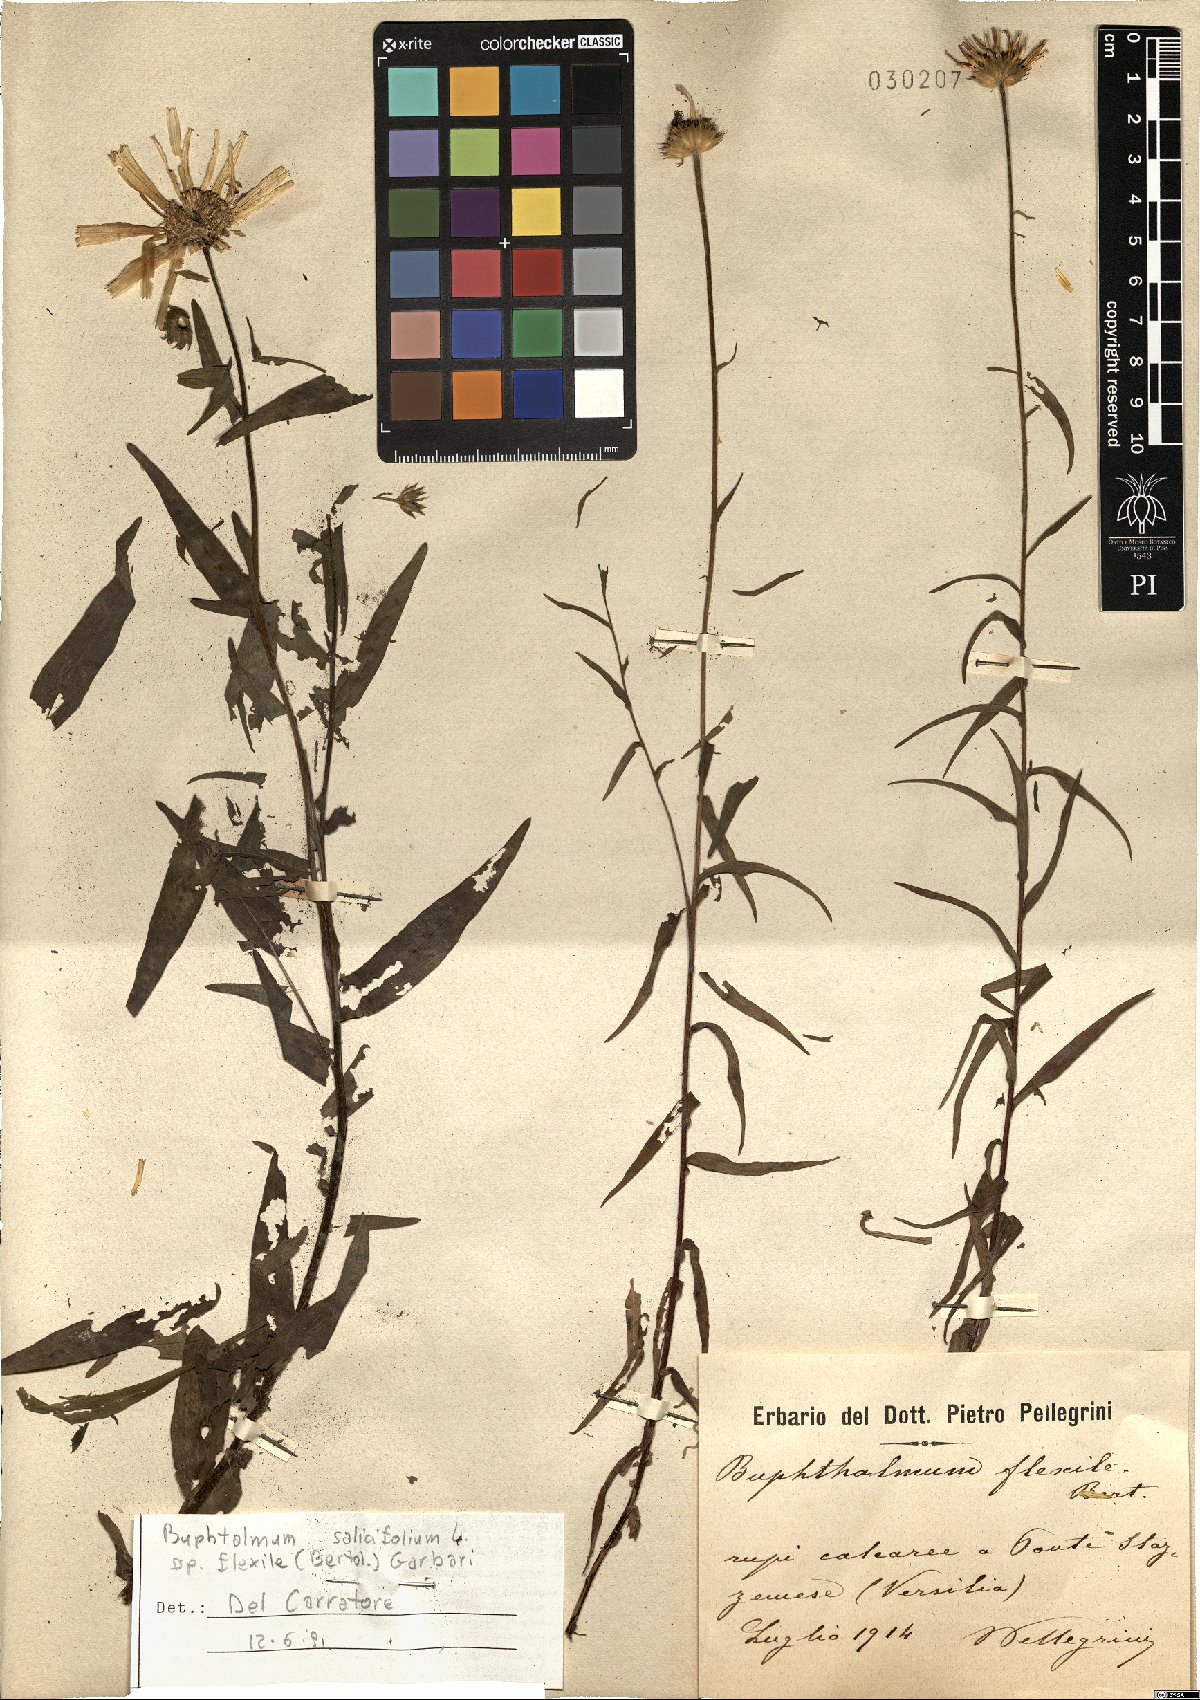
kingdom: Plantae
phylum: Tracheophyta
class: Magnoliopsida
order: Asterales
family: Asteraceae
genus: Buphthalmum
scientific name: Buphthalmum salicifolium
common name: Willow-leaved yellow-oxeye
